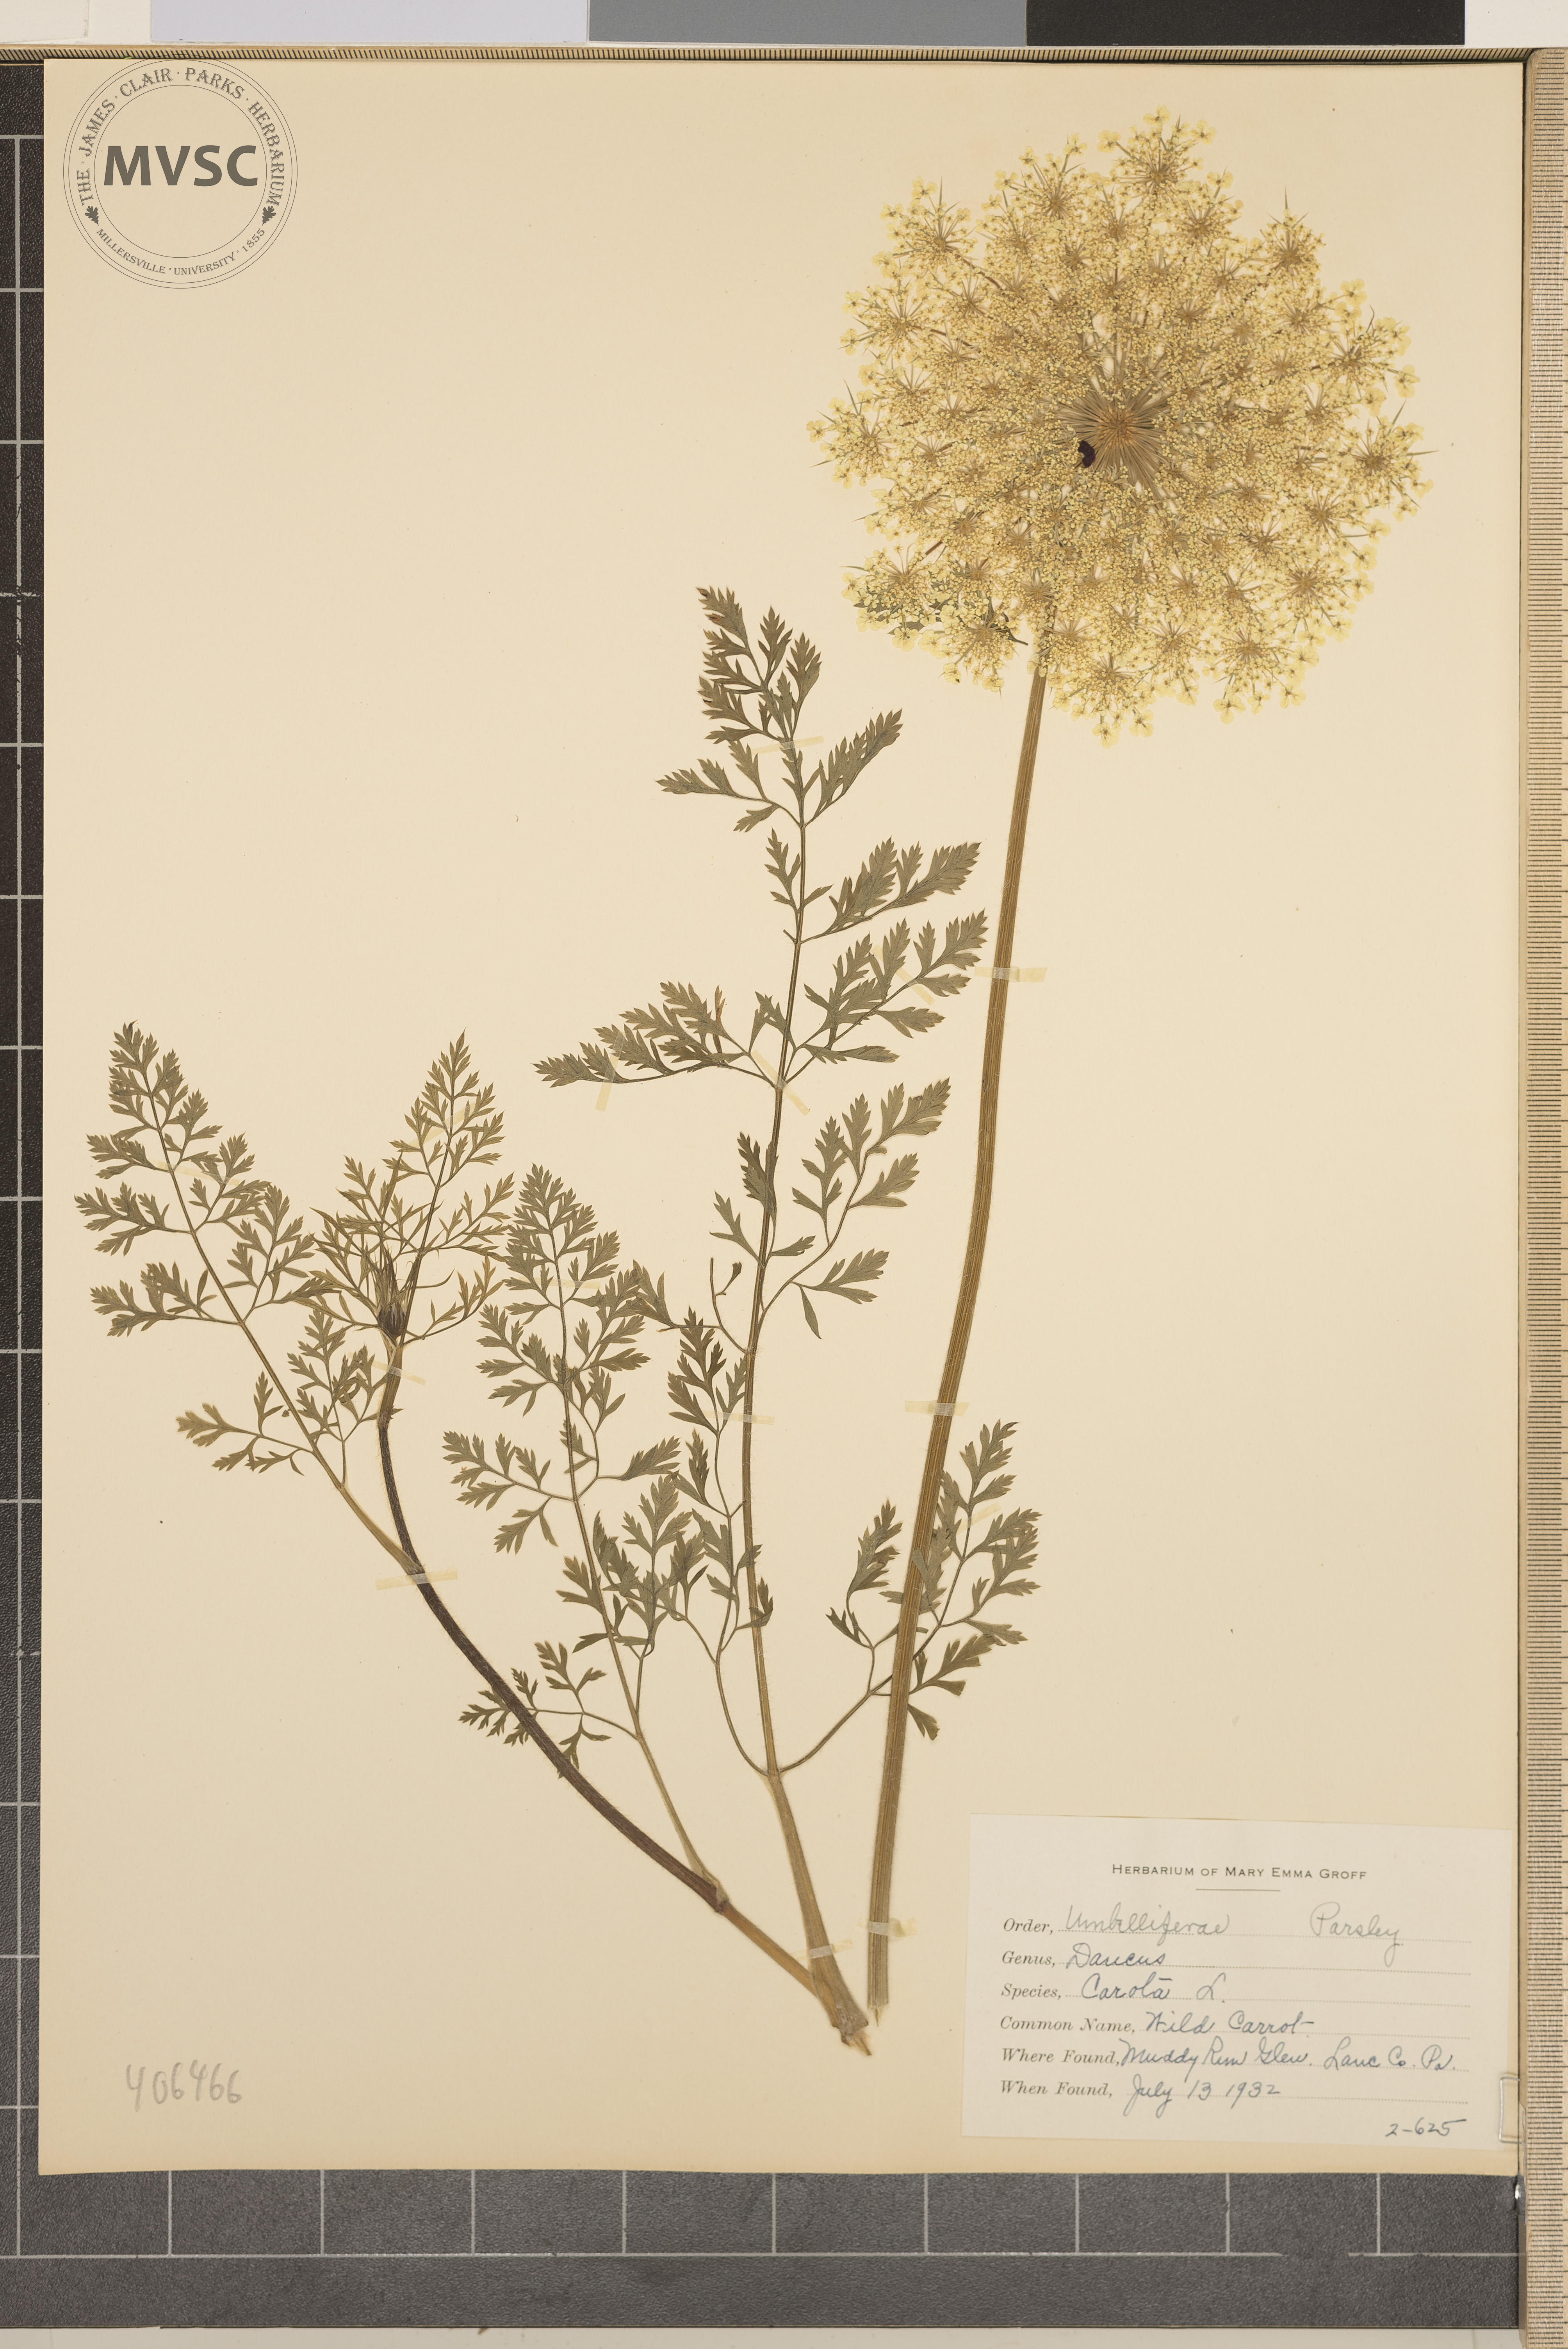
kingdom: Plantae
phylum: Tracheophyta
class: Magnoliopsida
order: Apiales
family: Apiaceae
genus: Daucus
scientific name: Daucus carota
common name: Wild Carrot
